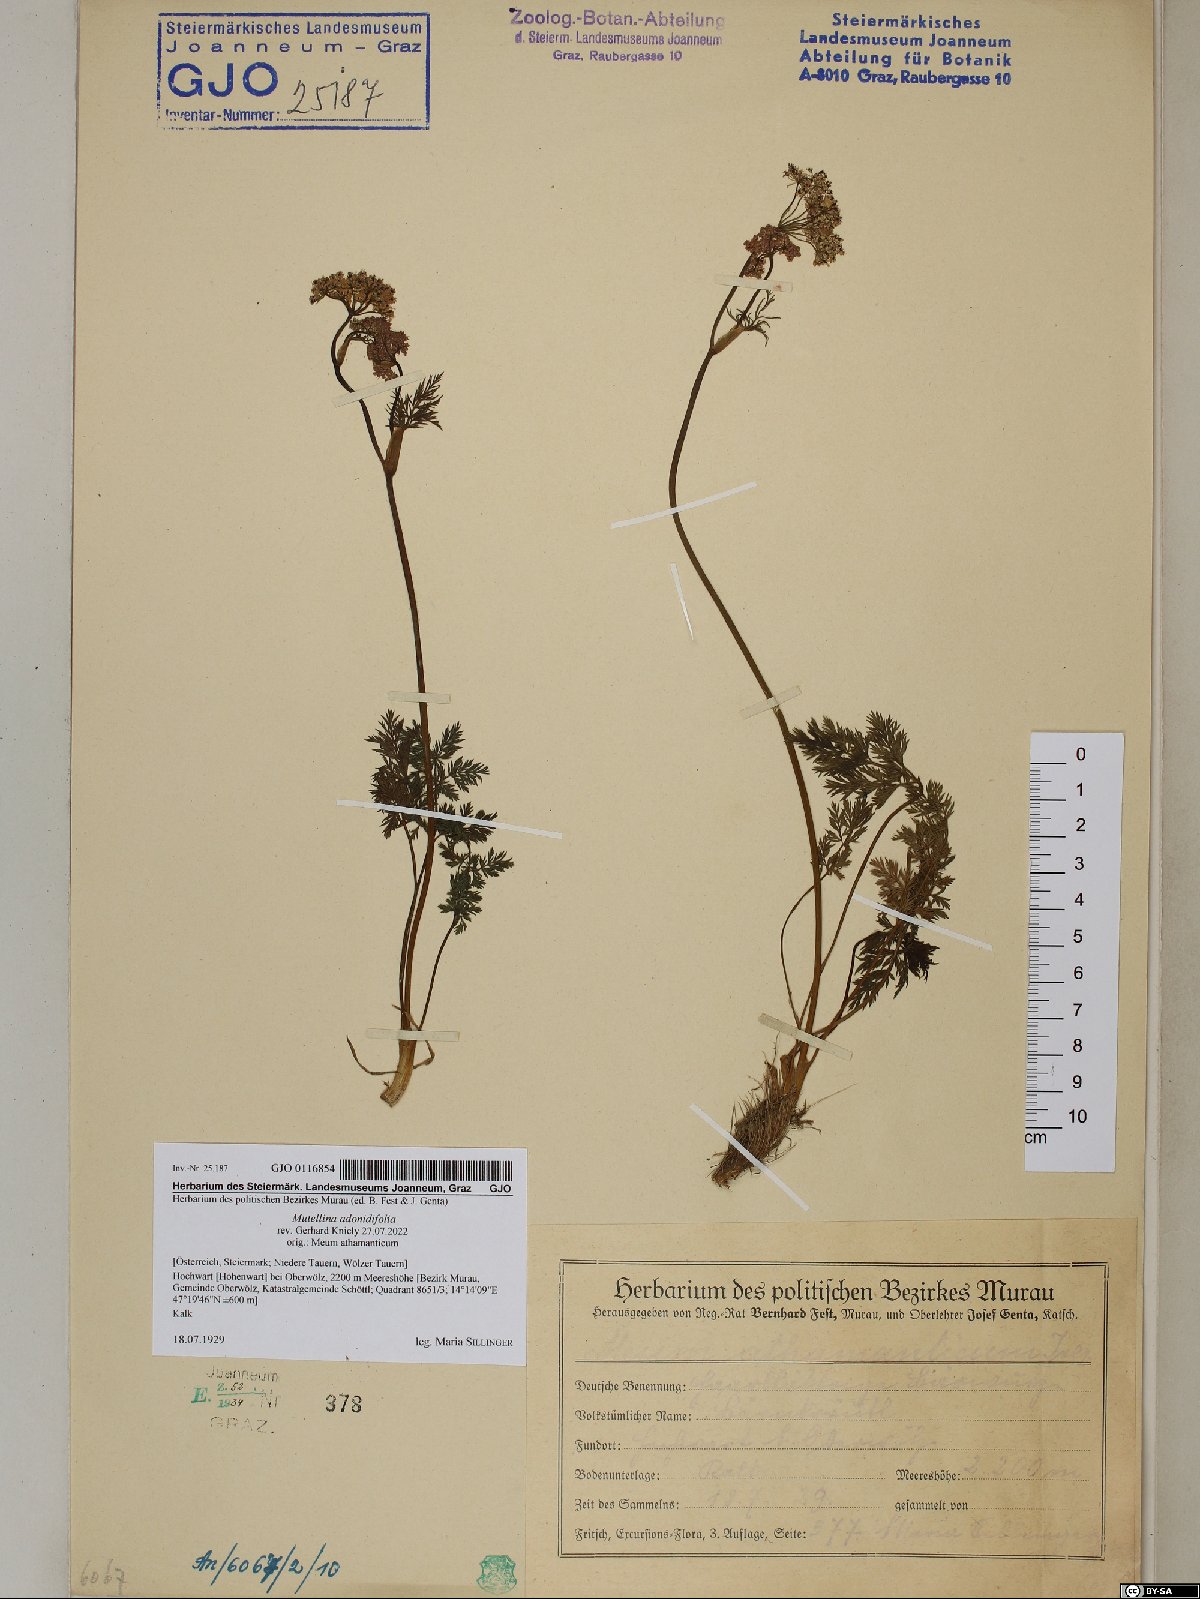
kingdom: Plantae
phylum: Tracheophyta
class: Magnoliopsida
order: Apiales
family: Apiaceae
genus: Mutellina
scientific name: Mutellina adonidifolia
